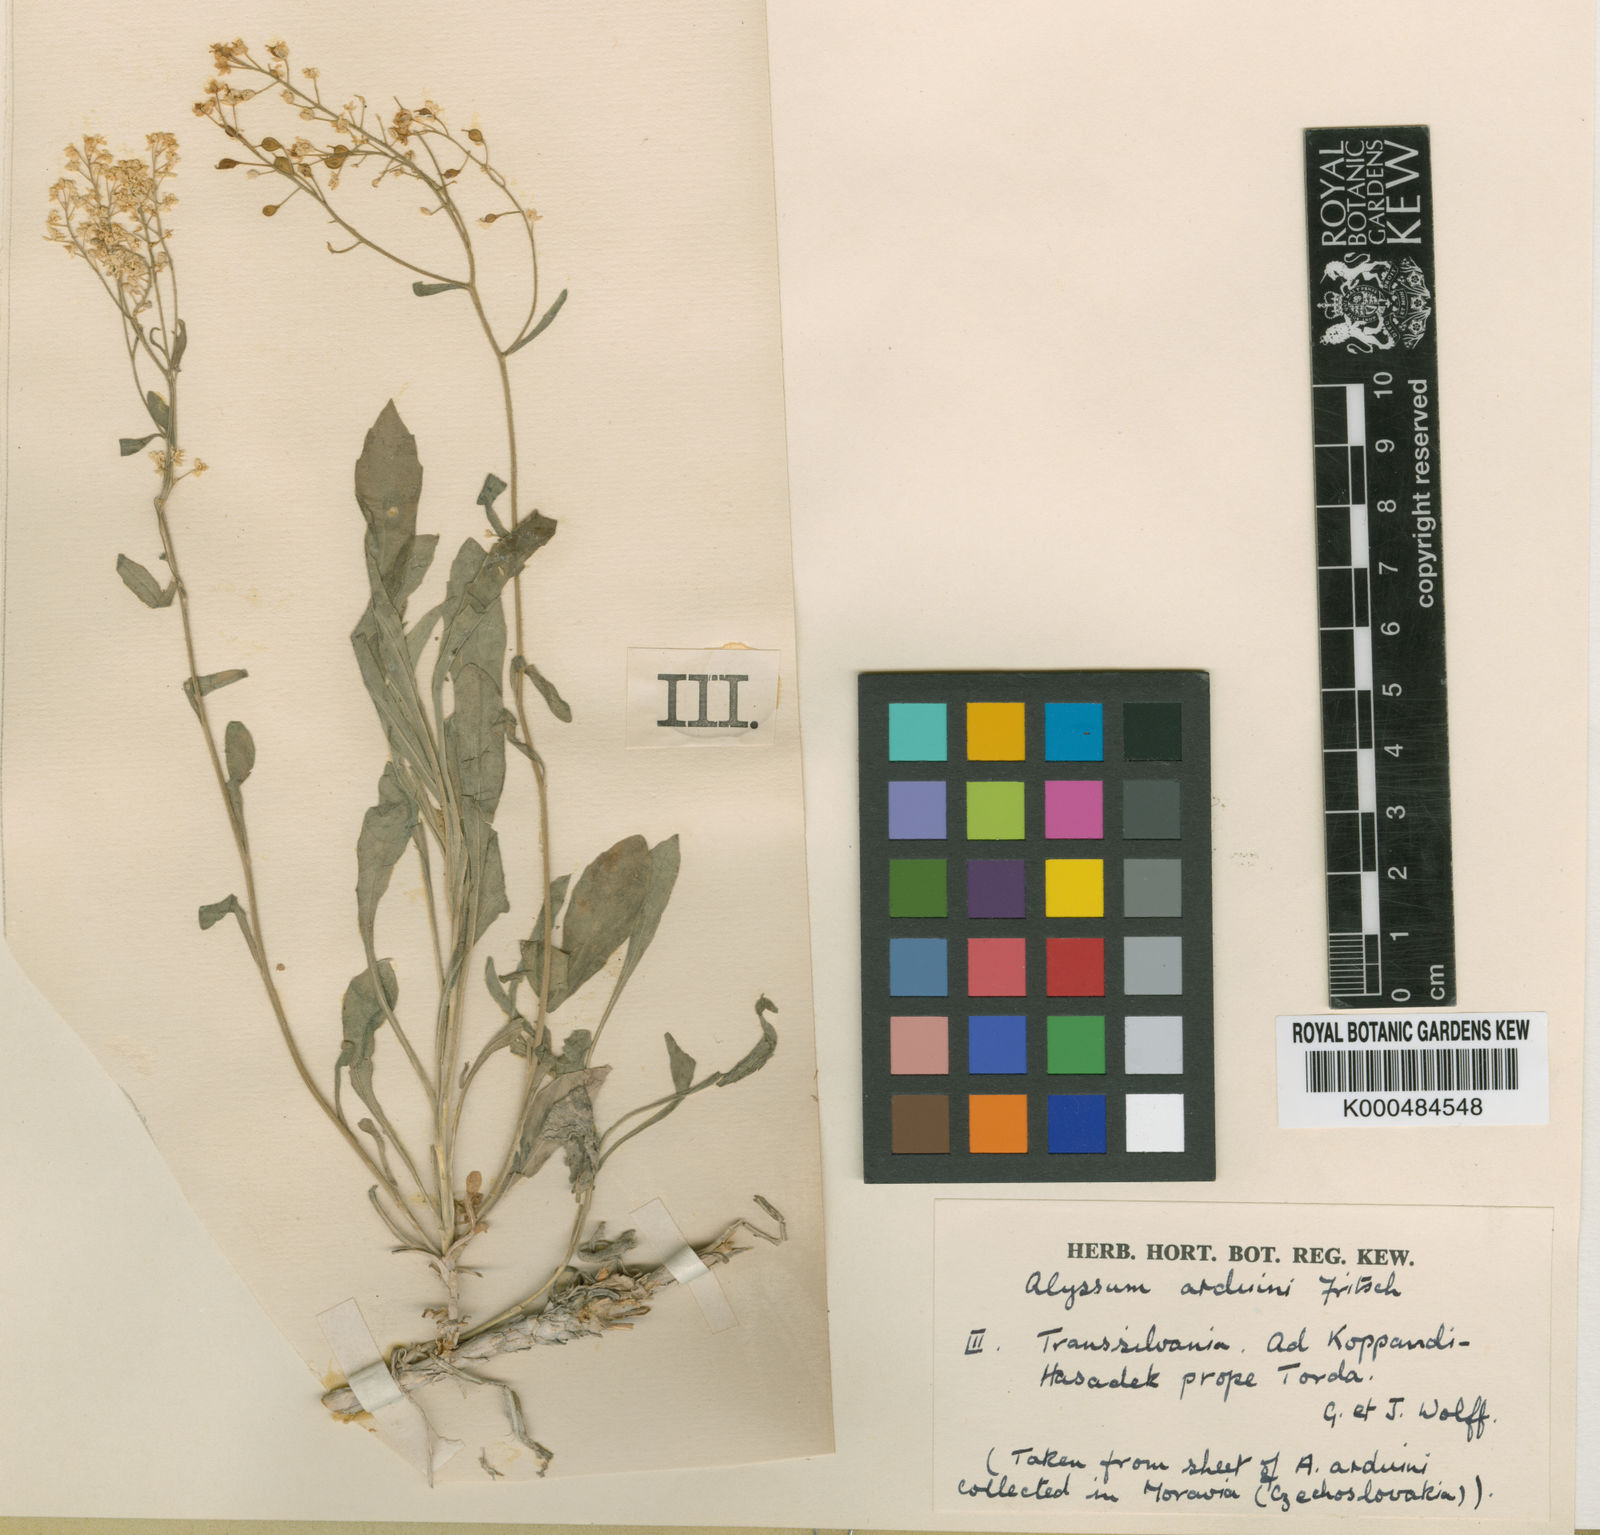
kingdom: Plantae
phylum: Tracheophyta
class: Magnoliopsida
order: Brassicales
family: Brassicaceae
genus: Aurinia
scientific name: Aurinia saxatilis
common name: Golden-tuft alyssum
